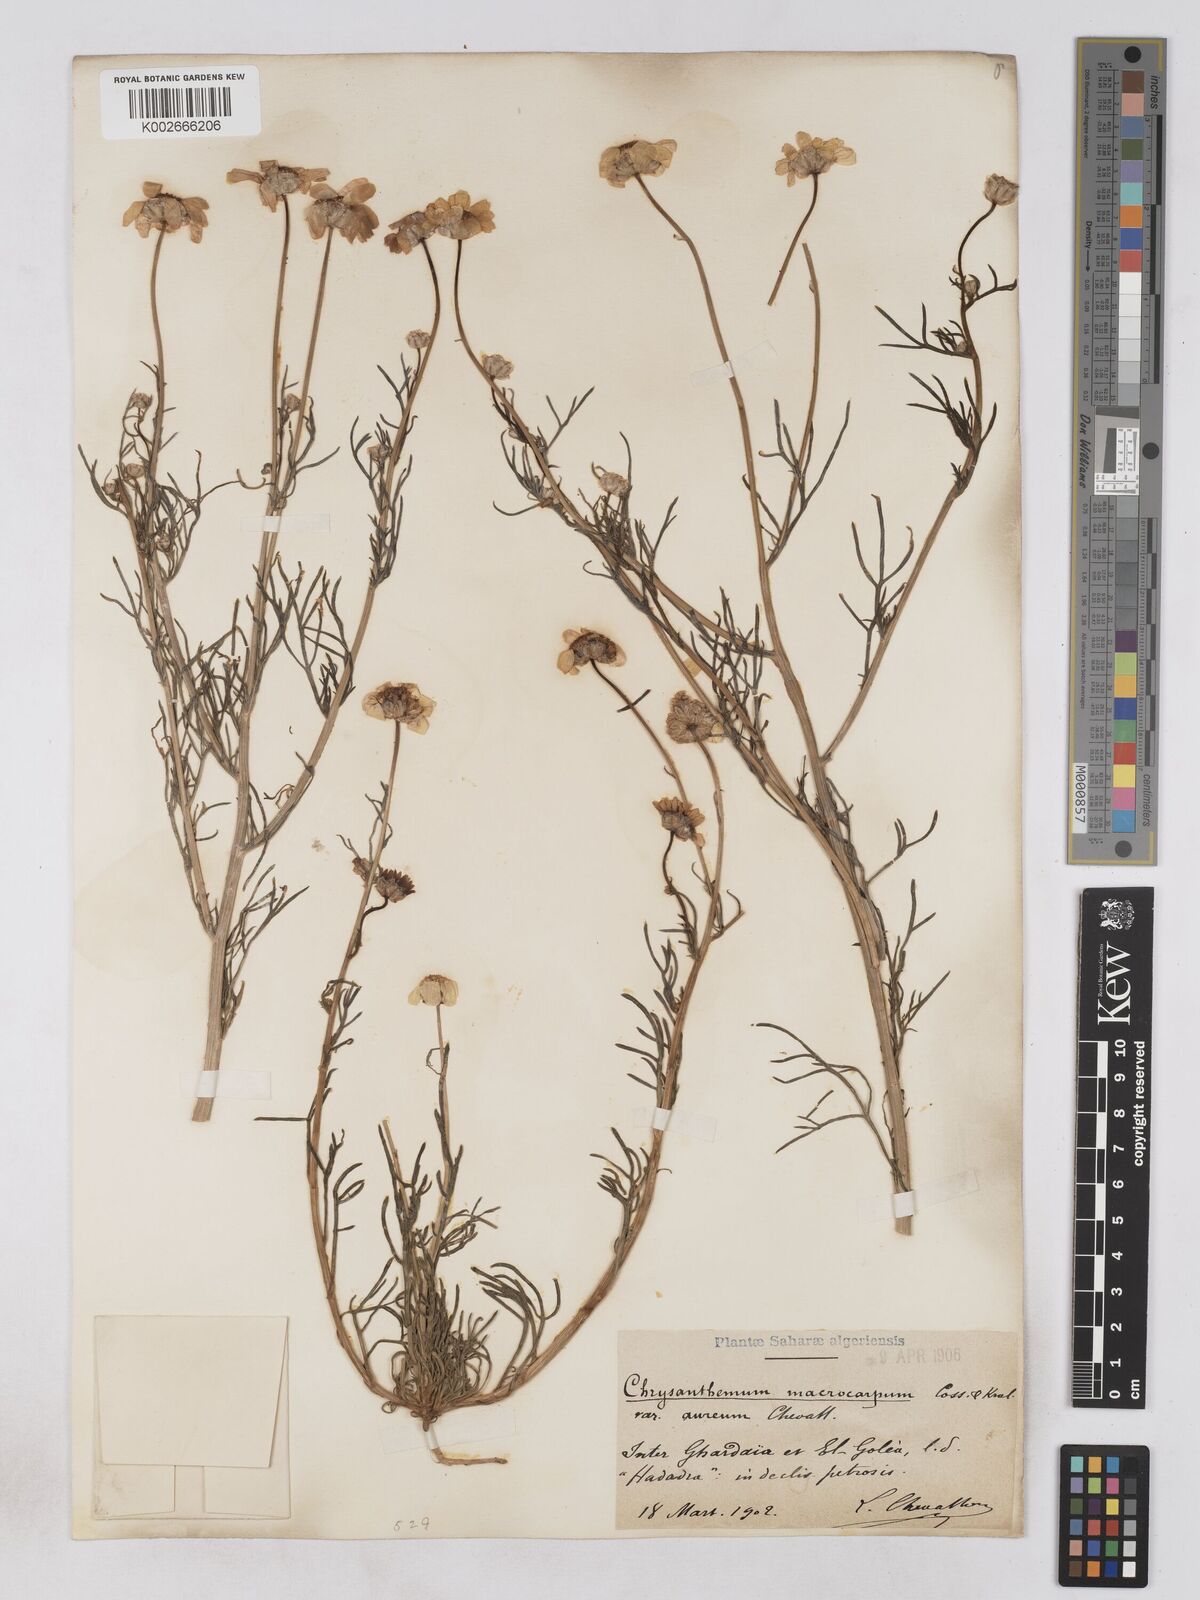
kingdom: Plantae
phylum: Tracheophyta
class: Magnoliopsida
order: Asterales
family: Asteraceae
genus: Endopappus
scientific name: Endopappus
